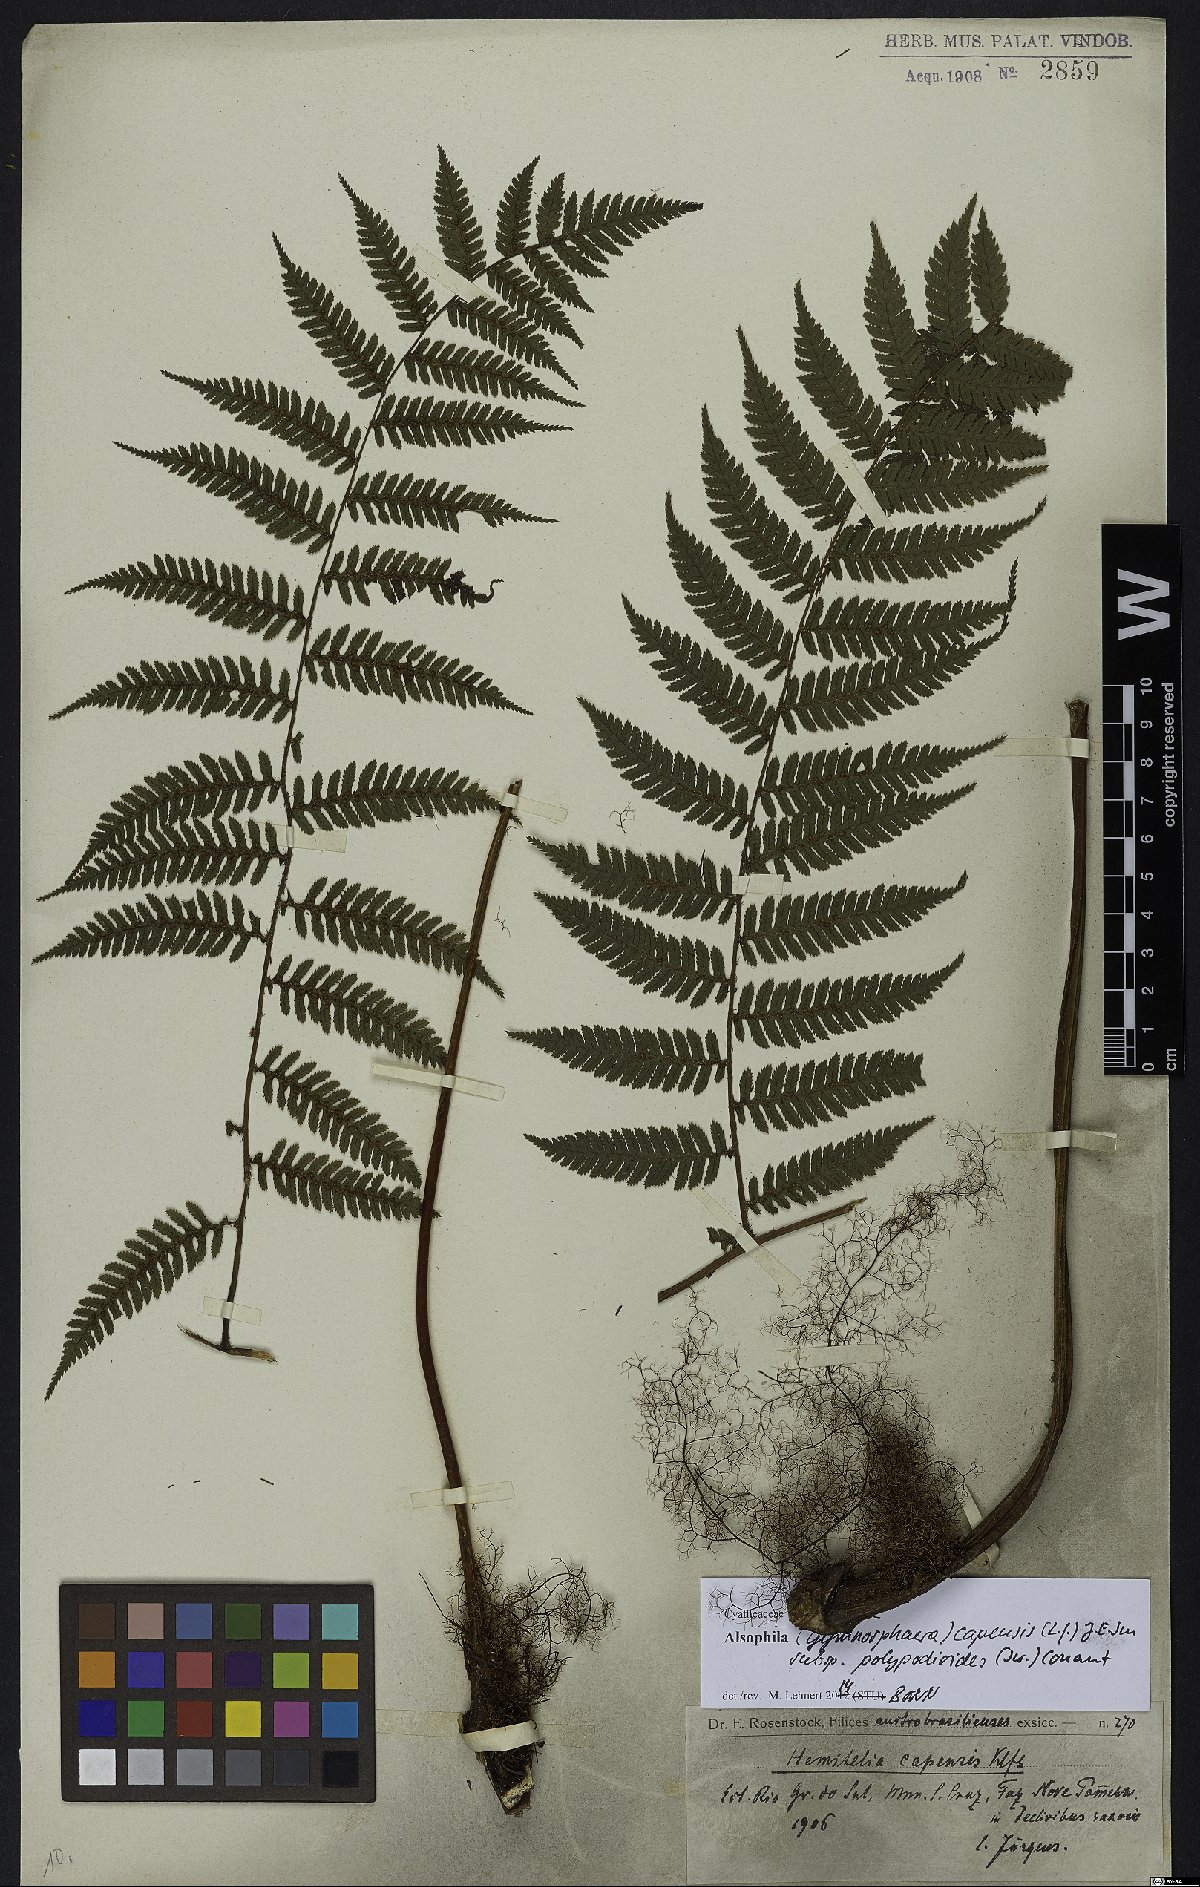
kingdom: Plantae
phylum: Tracheophyta
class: Polypodiopsida
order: Cyatheales
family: Cyatheaceae
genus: Gymnosphaera
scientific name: Gymnosphaera capensis
